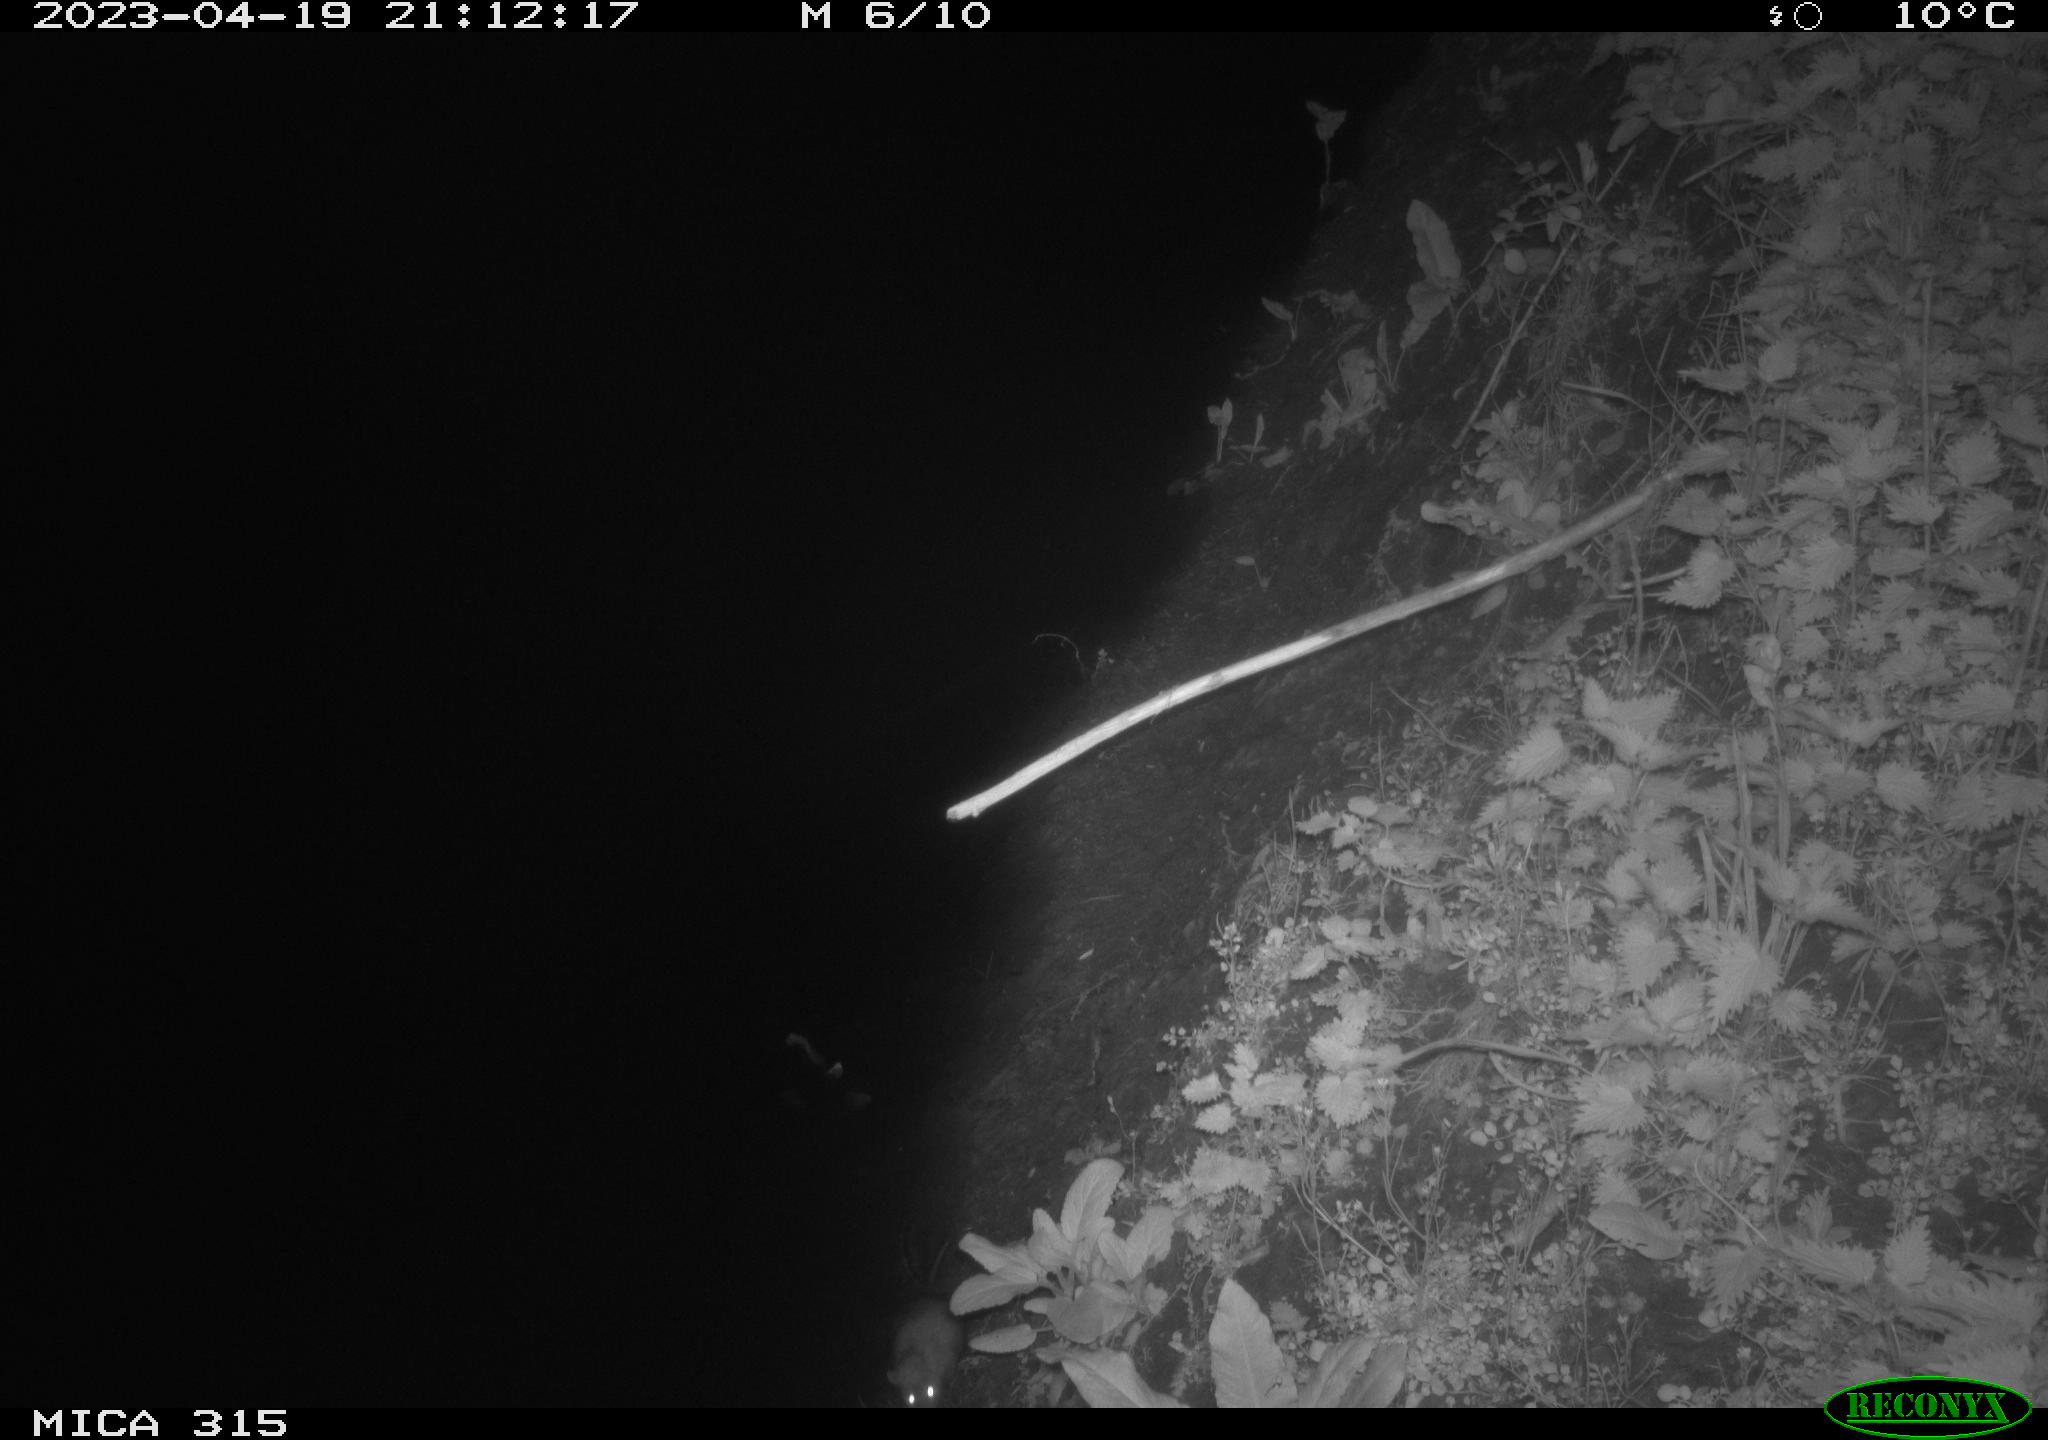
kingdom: Animalia
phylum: Chordata
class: Mammalia
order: Rodentia
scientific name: Rodentia
